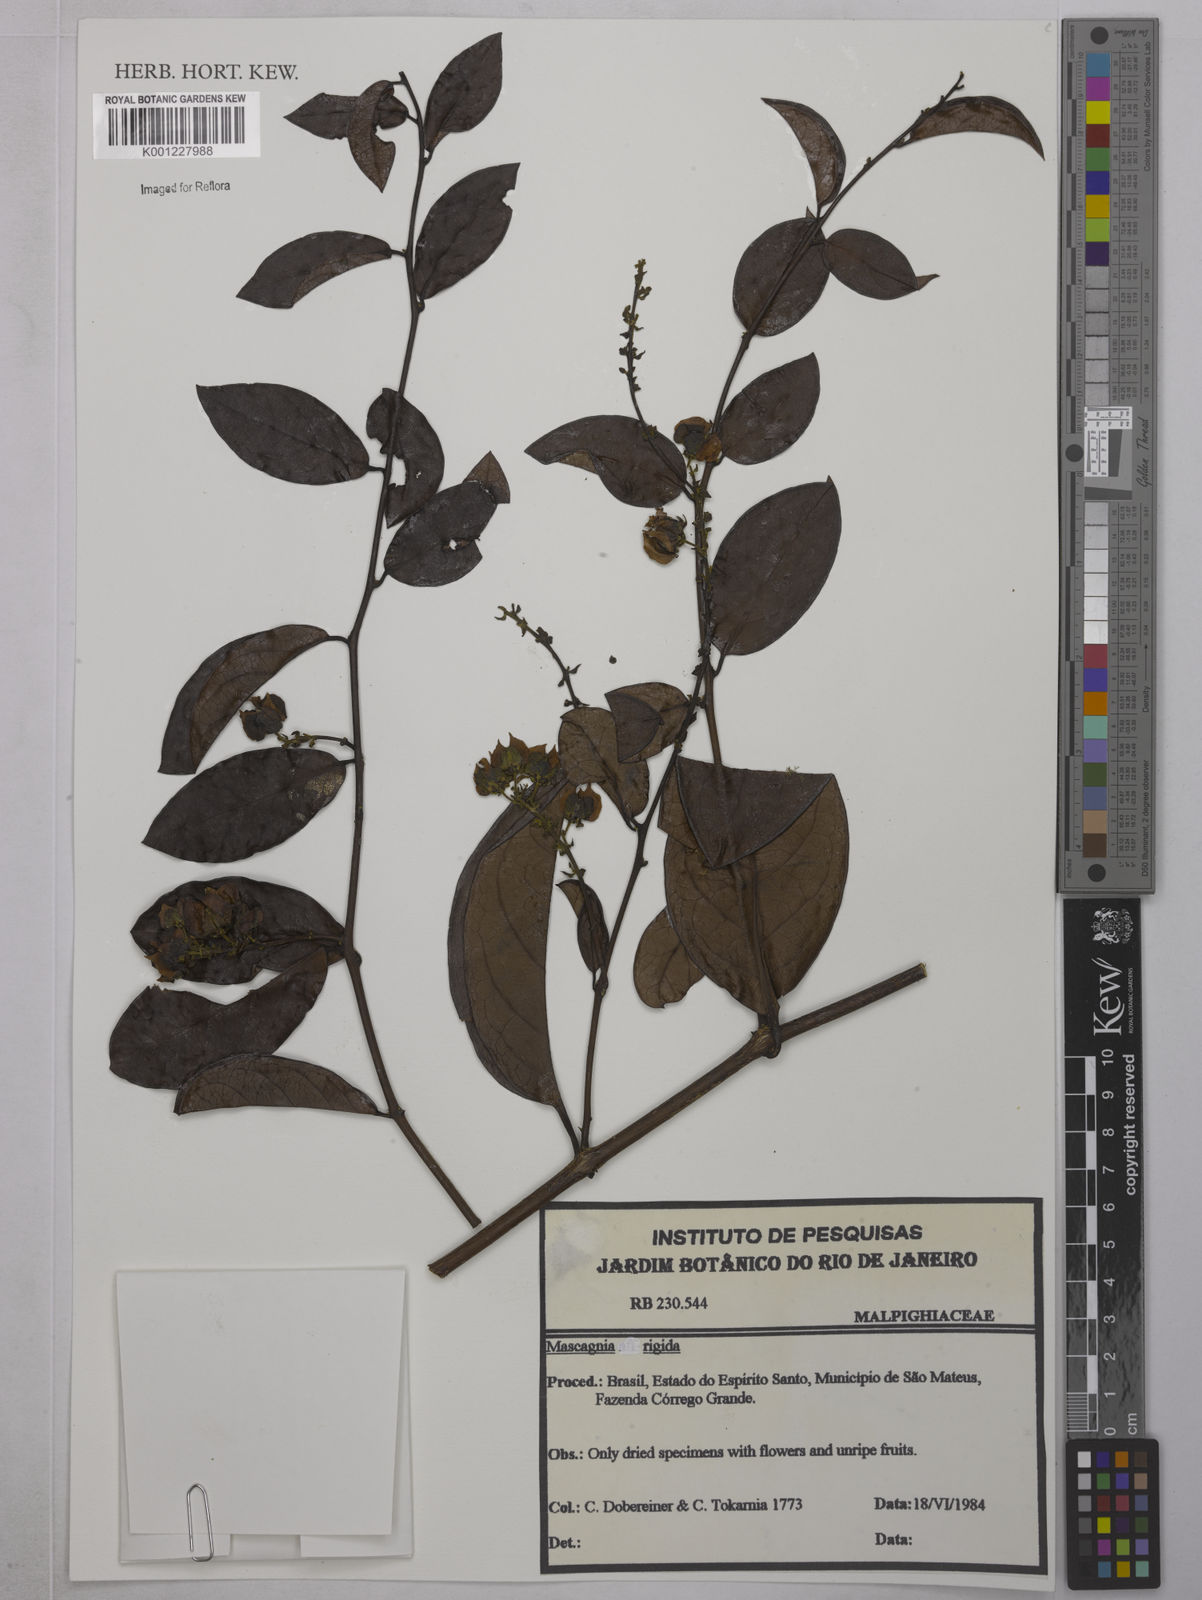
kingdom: Plantae
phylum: Tracheophyta
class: Magnoliopsida
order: Malpighiales
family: Malpighiaceae
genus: Amorimia
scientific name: Amorimia rigida
